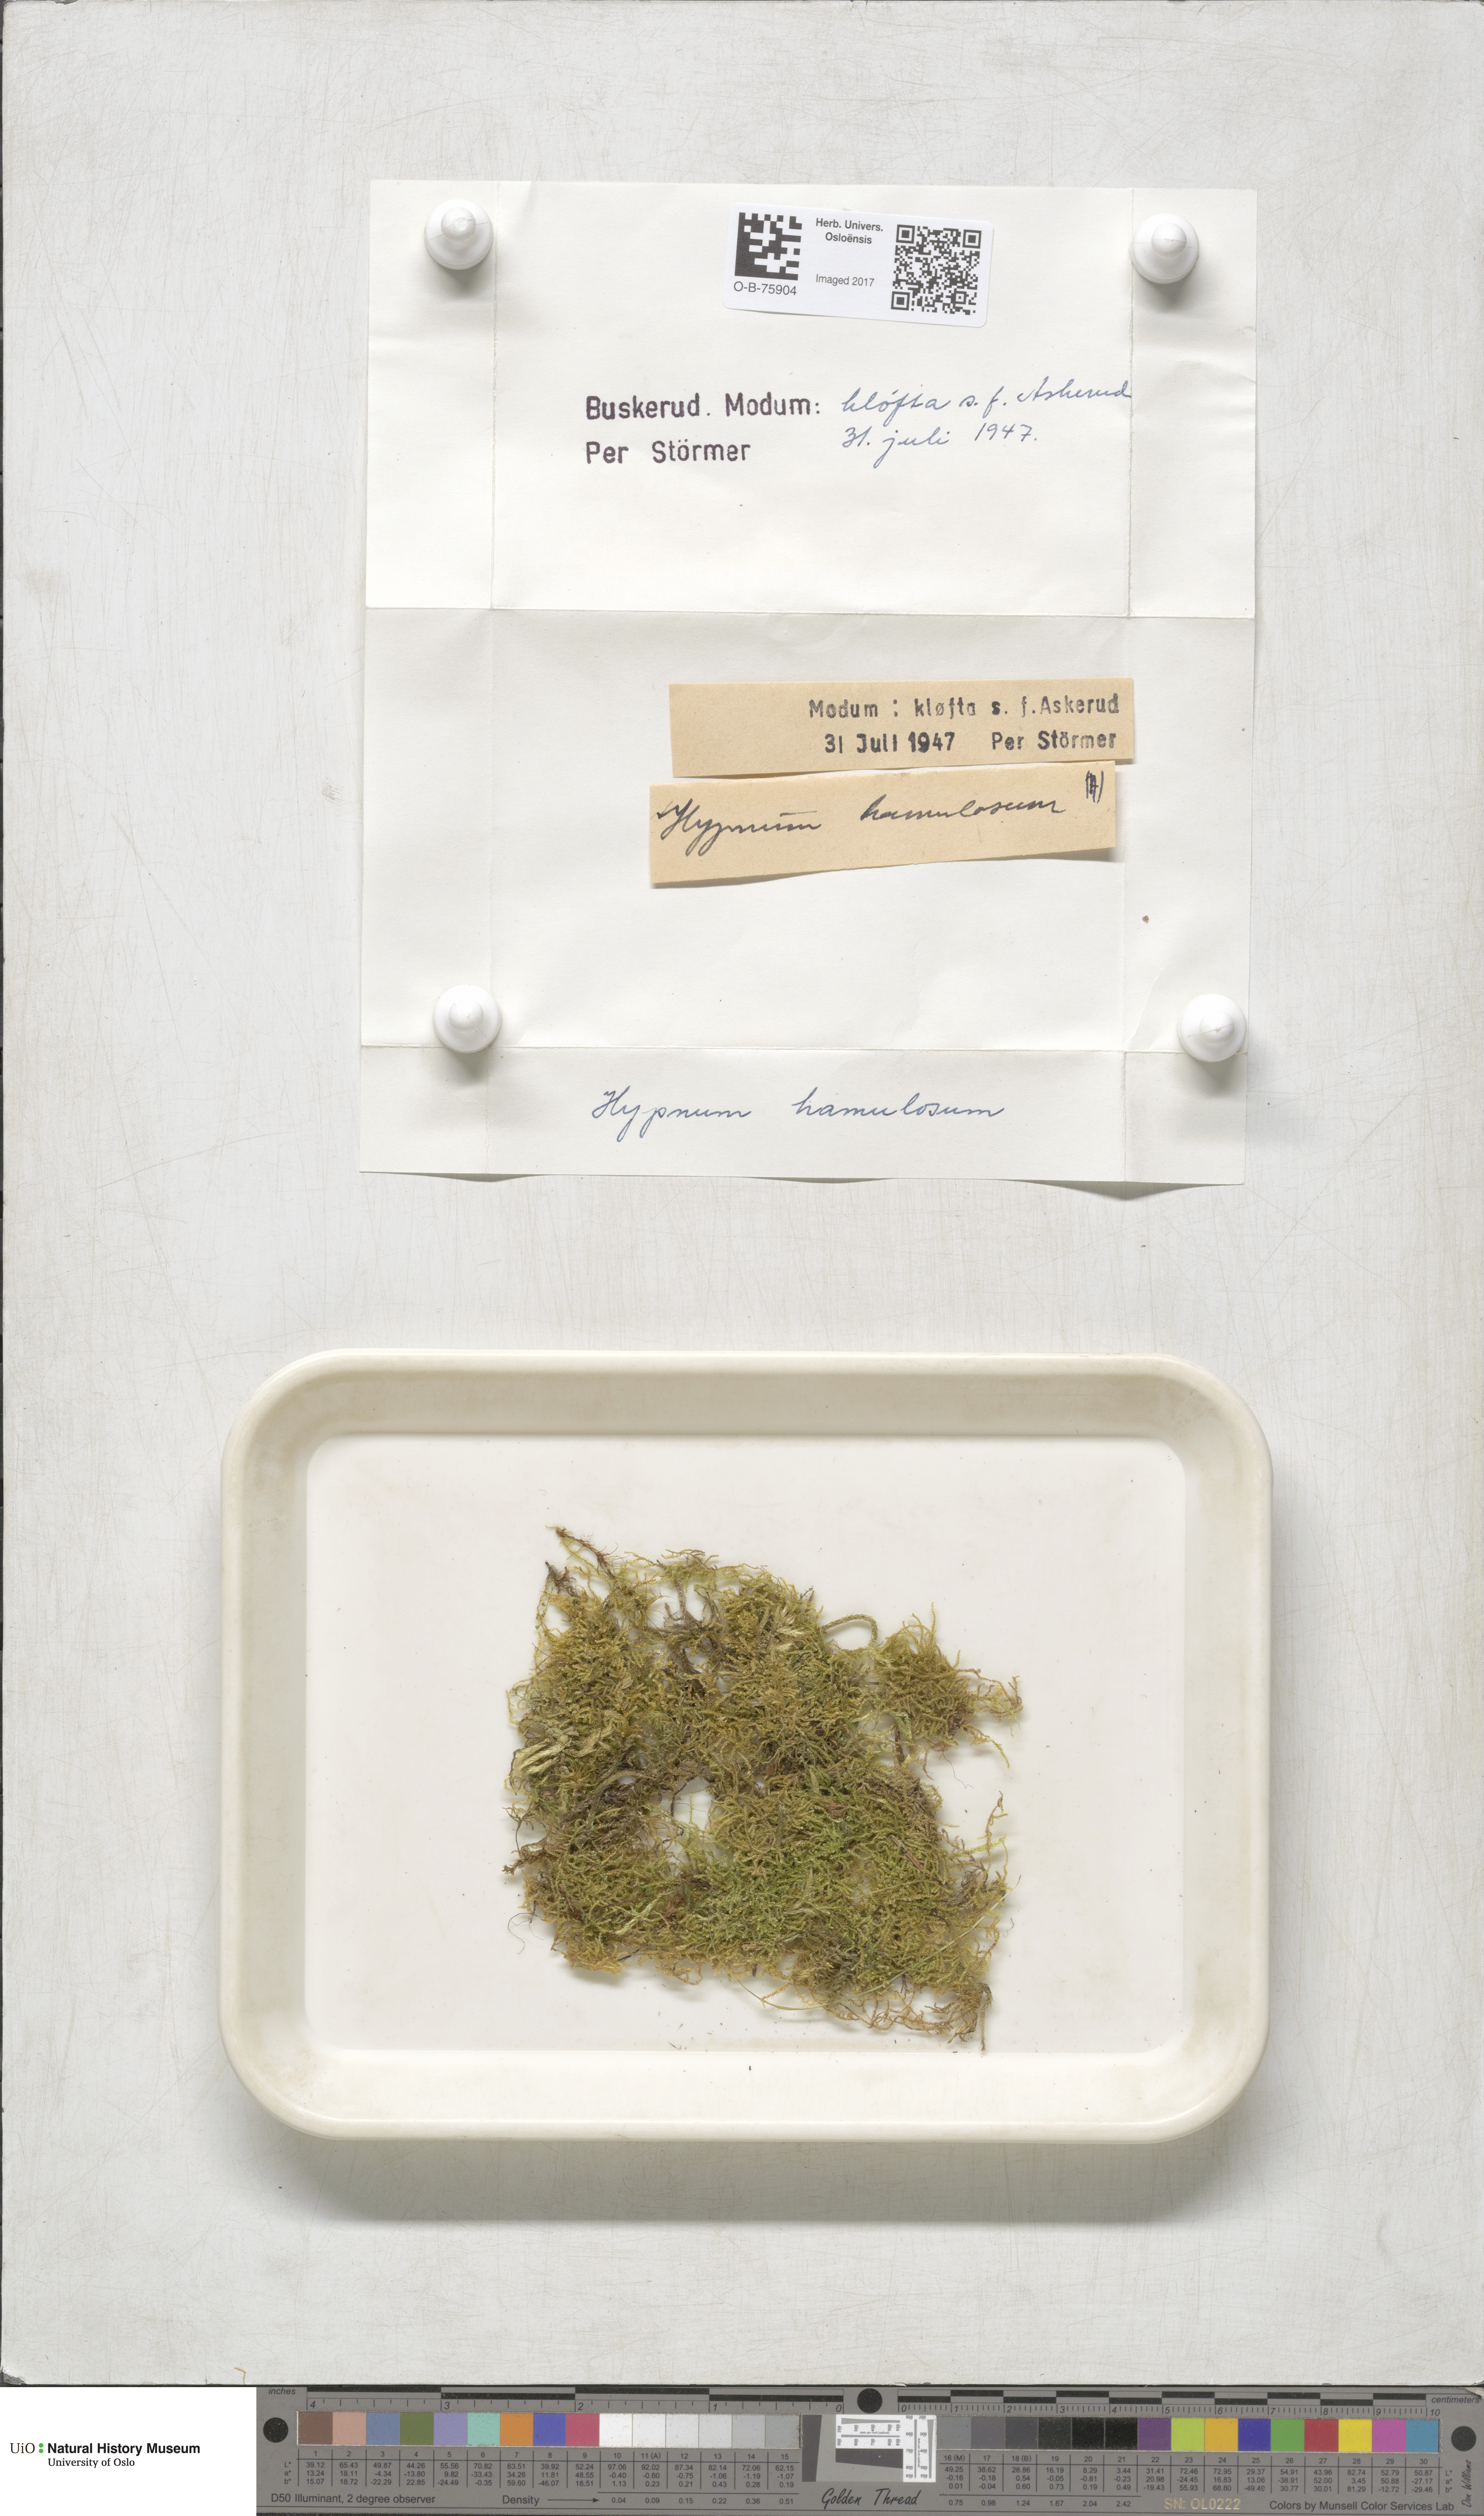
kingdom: Plantae
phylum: Bryophyta
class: Bryopsida
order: Hypnales
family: Stereodontaceae
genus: Stereodon
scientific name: Stereodon callichrous
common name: Downy plait-moss
